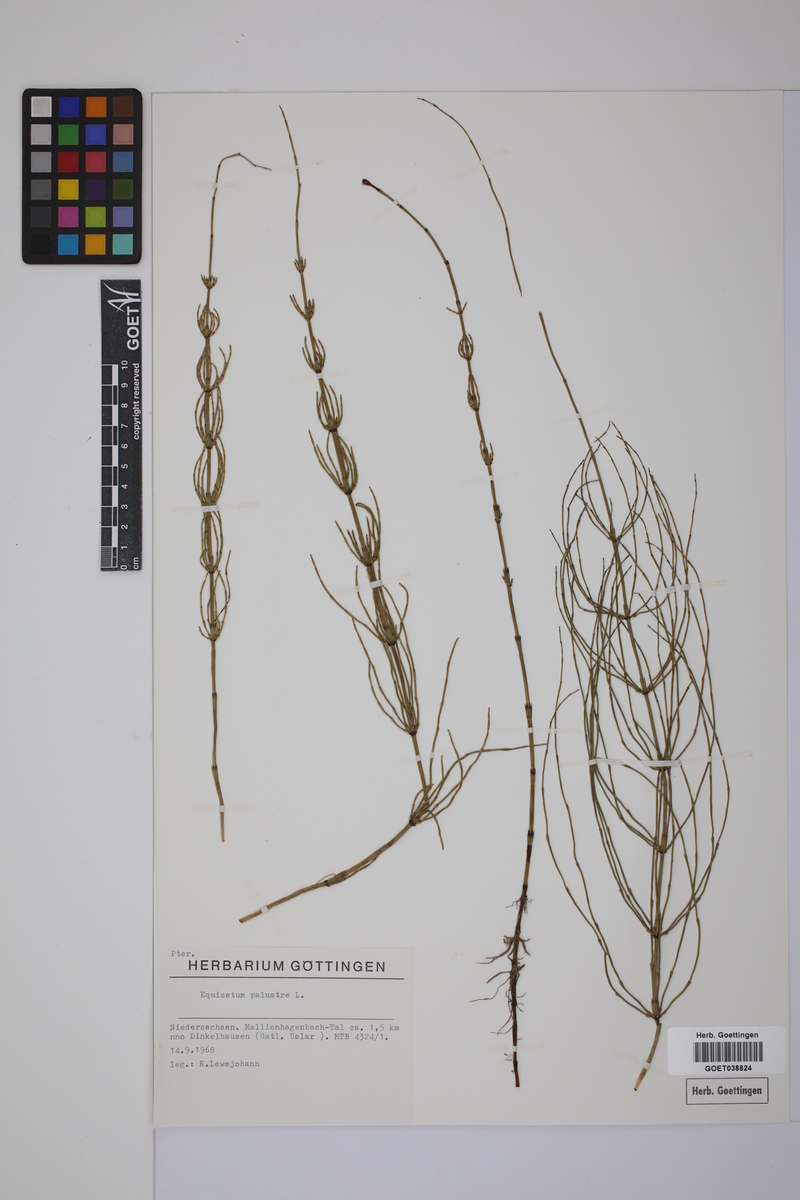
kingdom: Plantae
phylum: Tracheophyta
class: Polypodiopsida
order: Equisetales
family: Equisetaceae
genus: Equisetum
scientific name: Equisetum palustre
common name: Marsh horsetail
